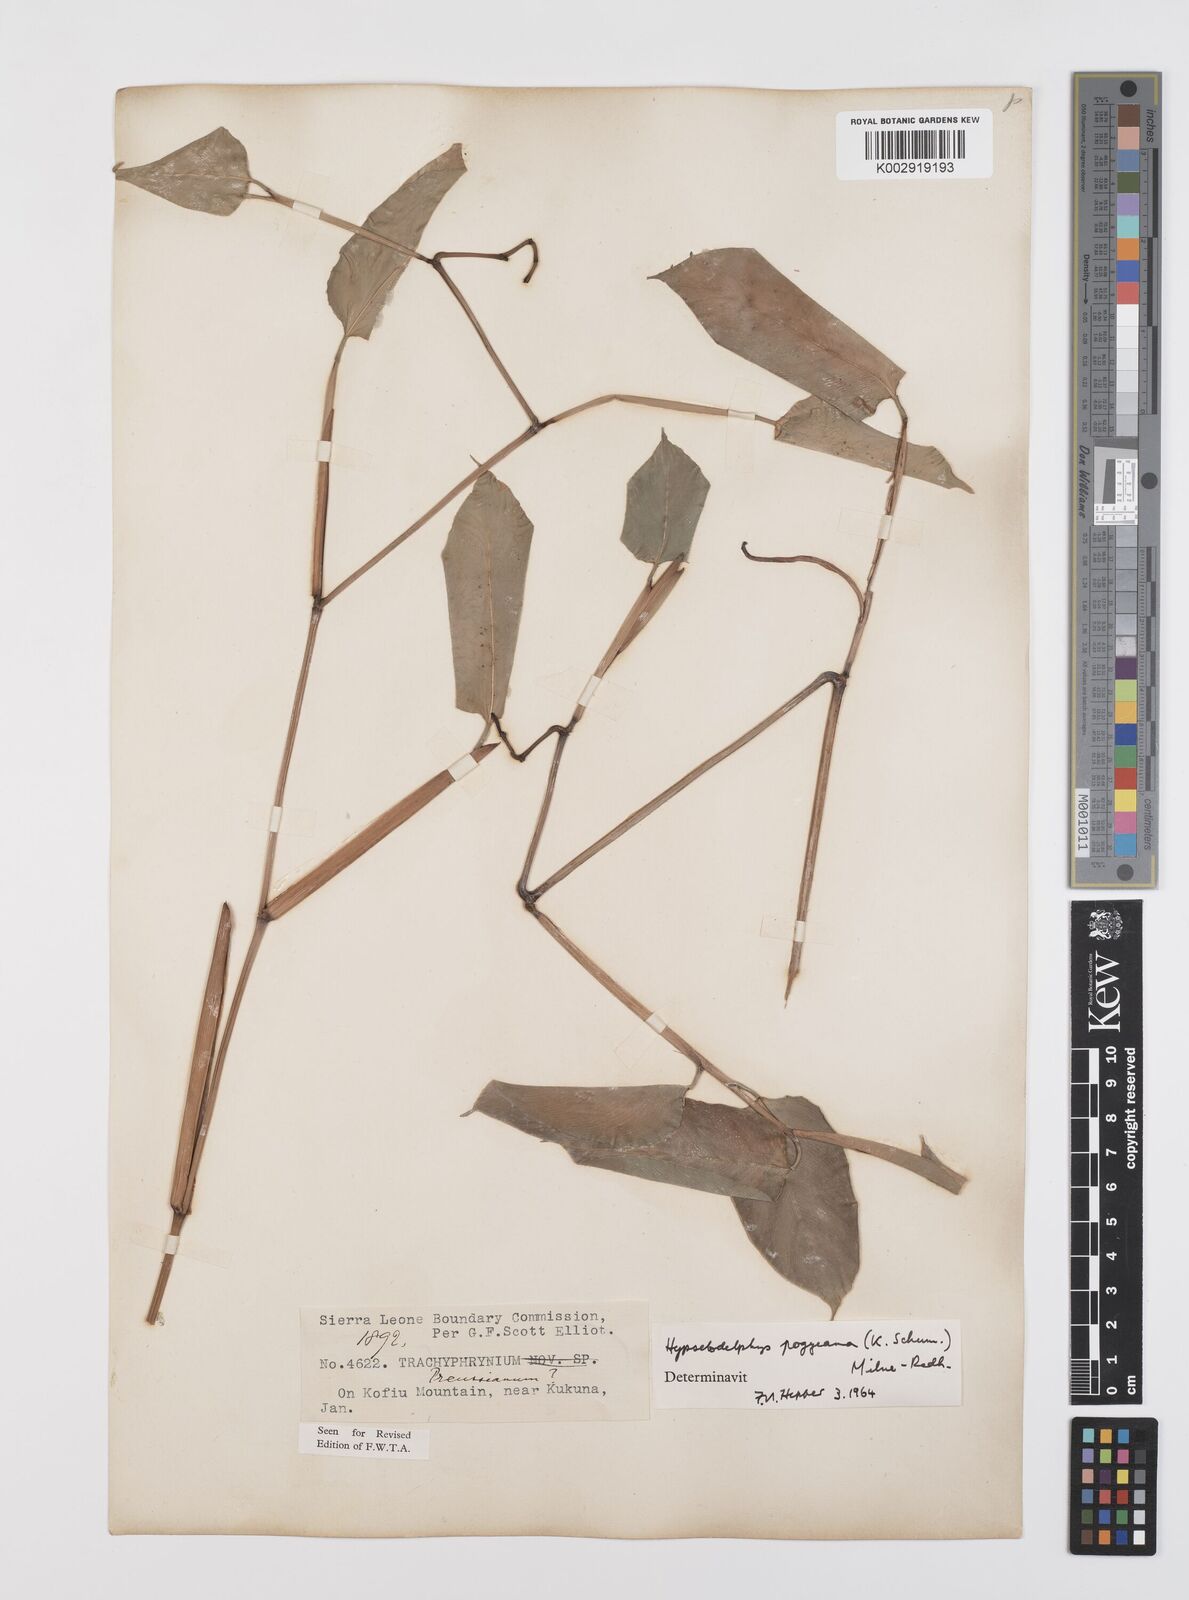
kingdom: Plantae
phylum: Tracheophyta
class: Liliopsida
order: Zingiberales
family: Marantaceae
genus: Hypselodelphys
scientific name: Hypselodelphys poggeana
